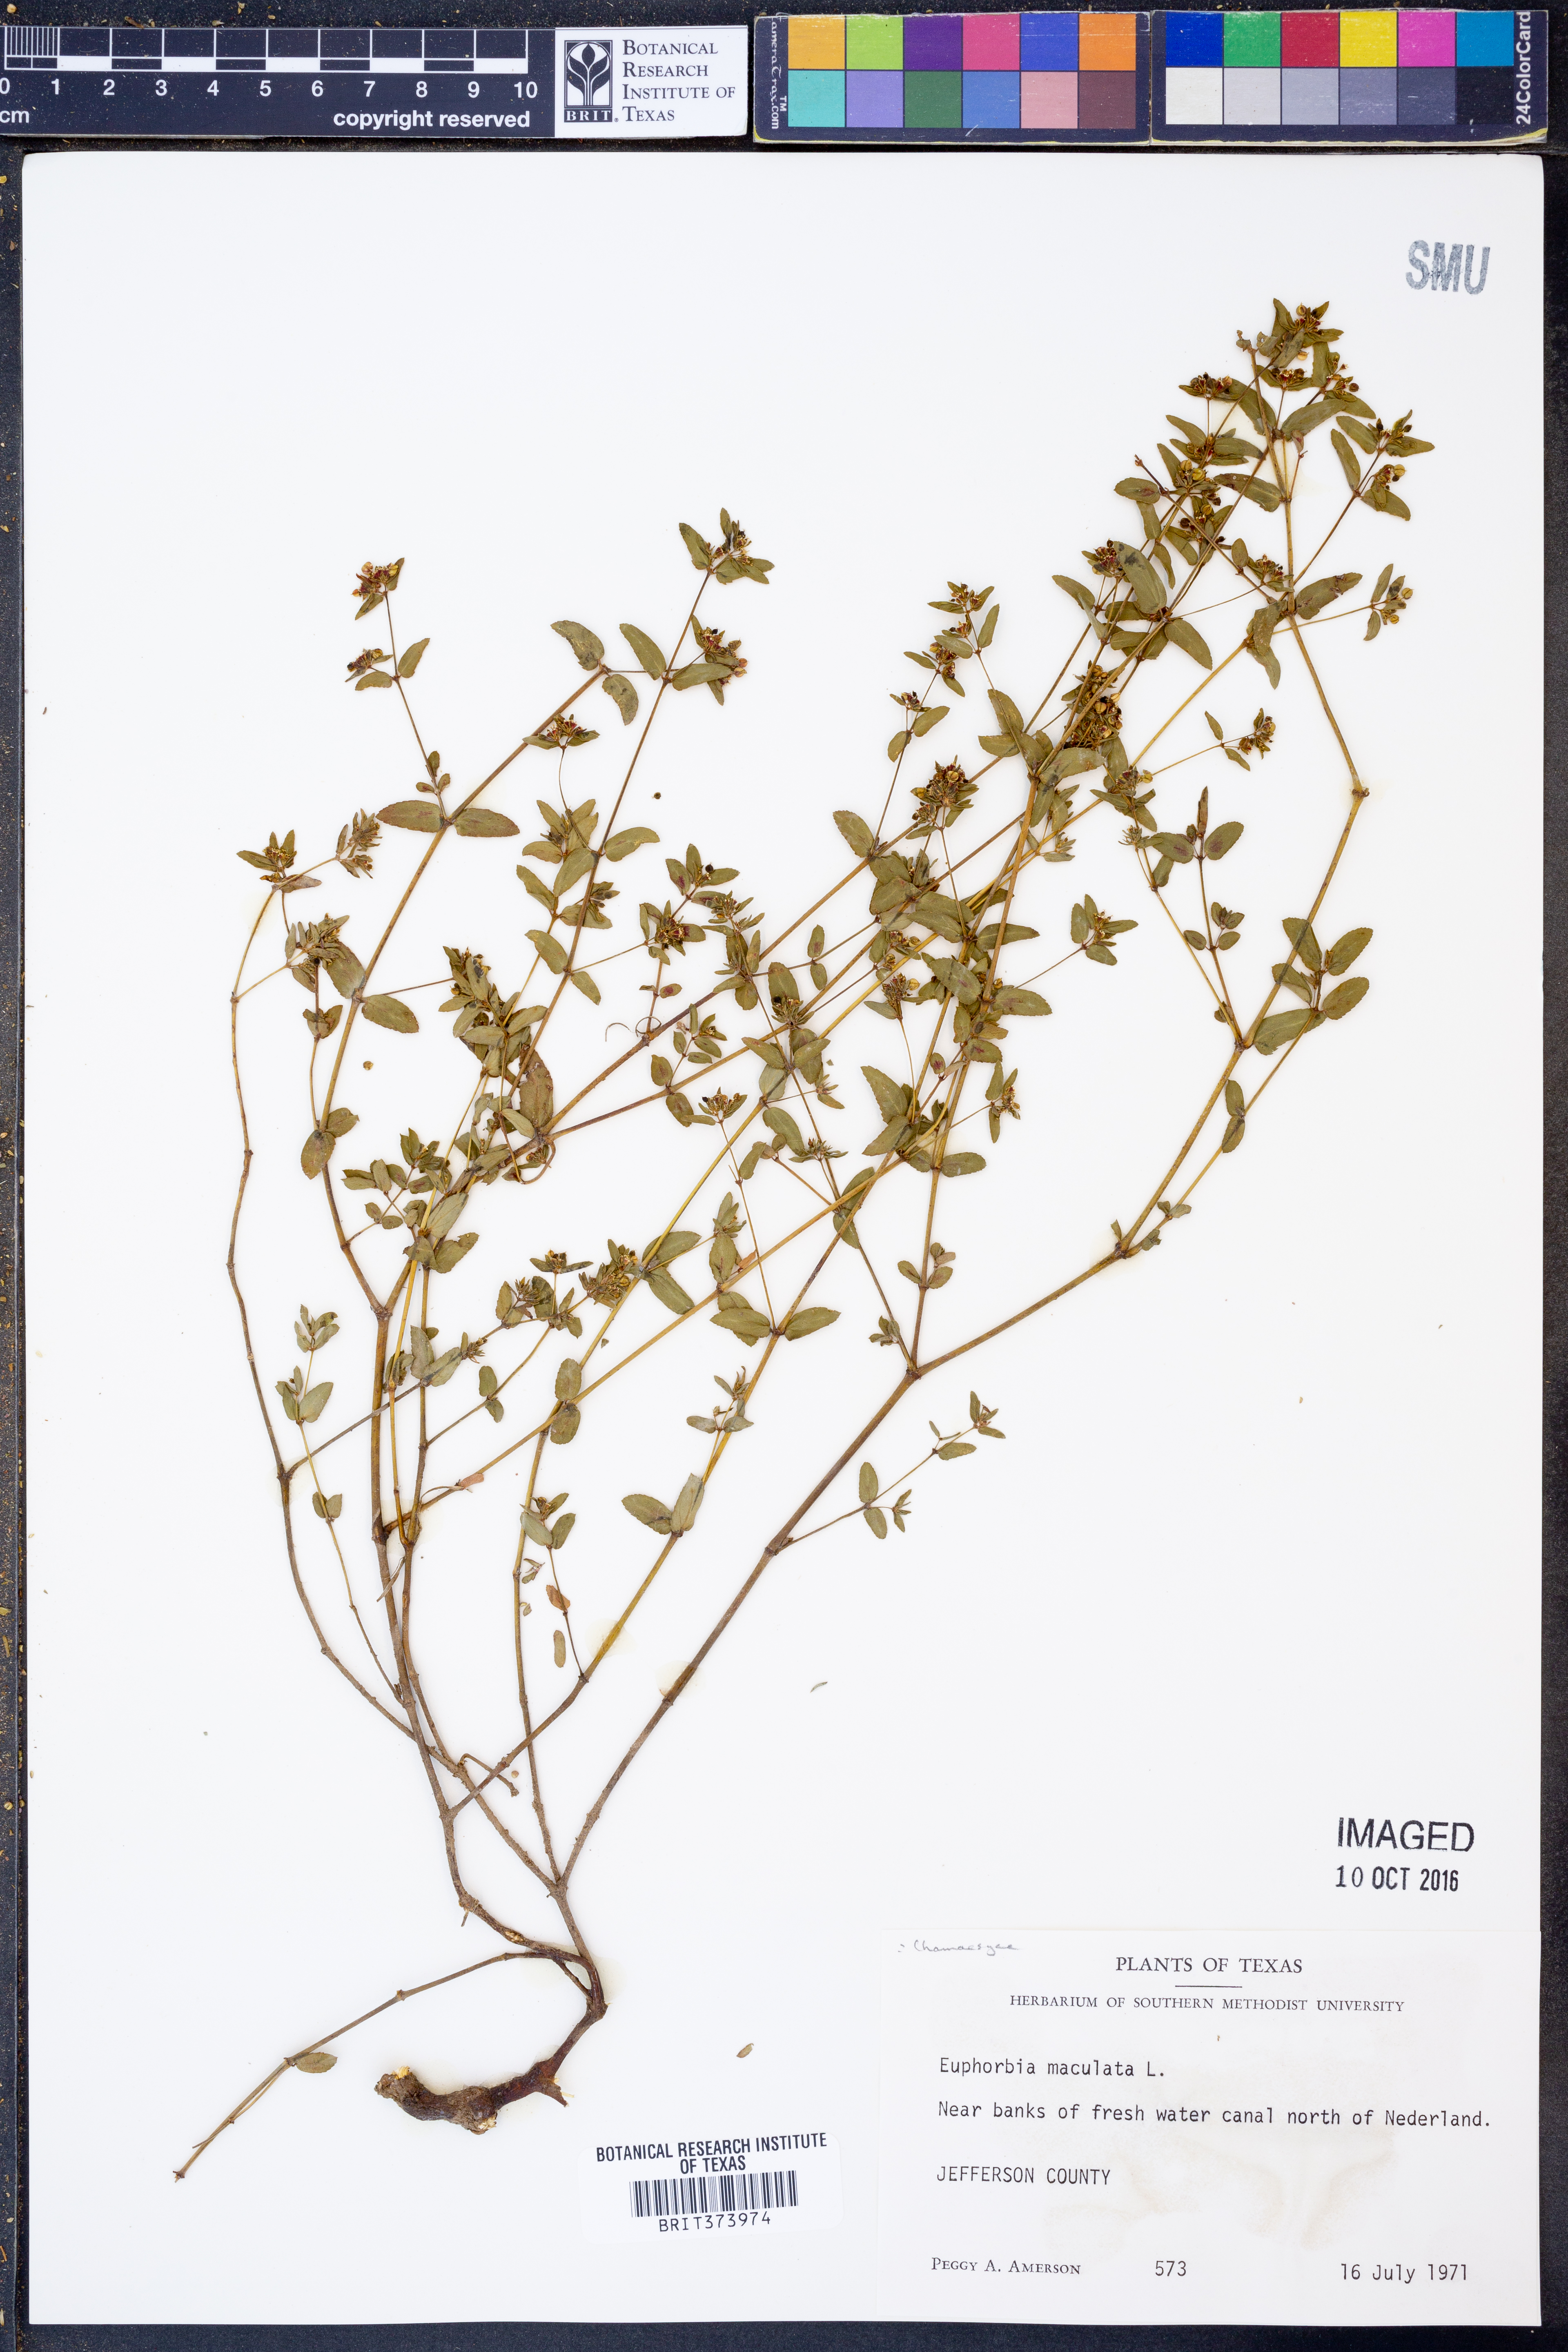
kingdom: Plantae
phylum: Tracheophyta
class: Magnoliopsida
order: Malpighiales
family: Euphorbiaceae
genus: Euphorbia
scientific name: Euphorbia maculata
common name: Spotted spurge
